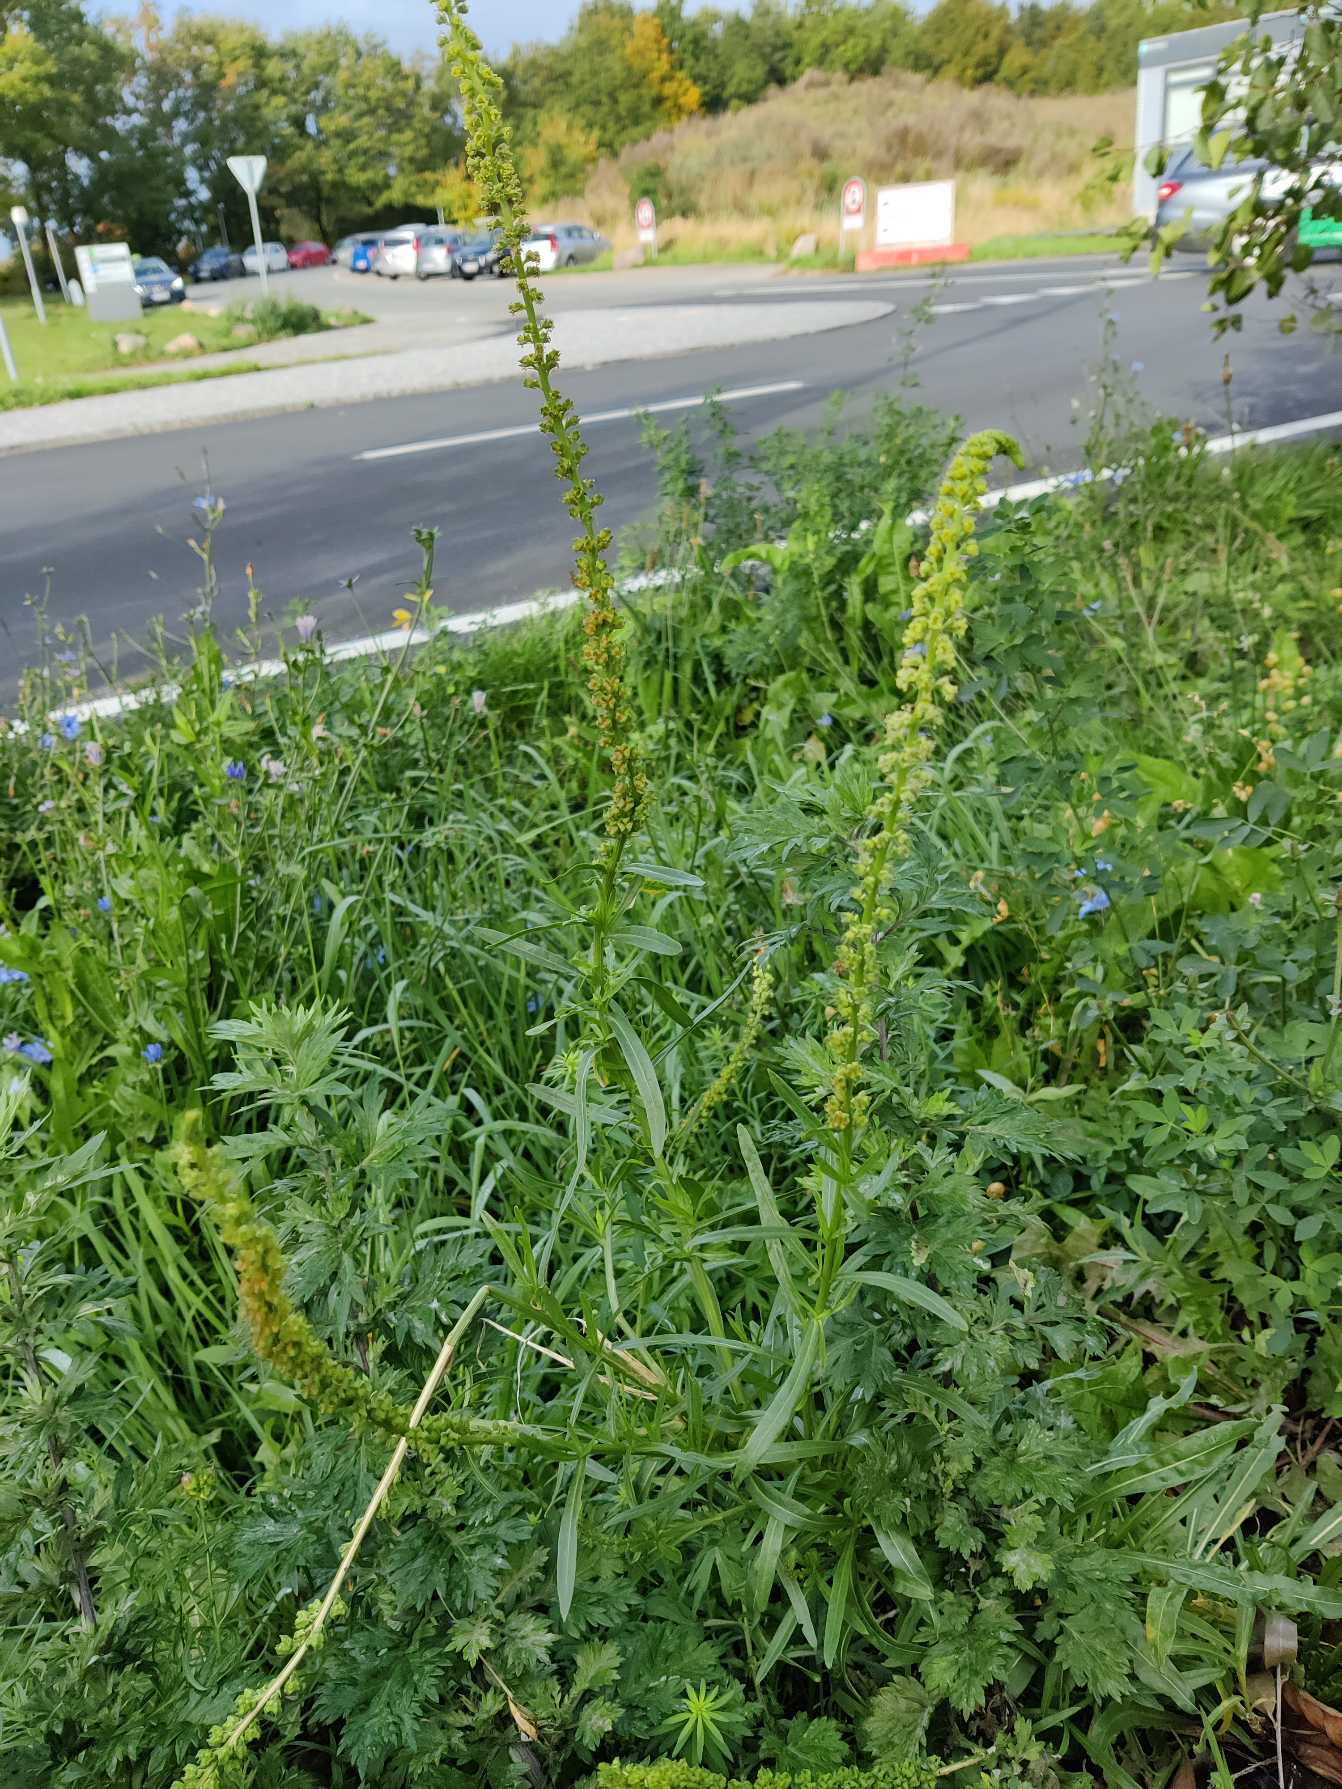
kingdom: Plantae
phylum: Tracheophyta
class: Magnoliopsida
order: Brassicales
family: Resedaceae
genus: Reseda
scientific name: Reseda luteola
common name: Farve-reseda
